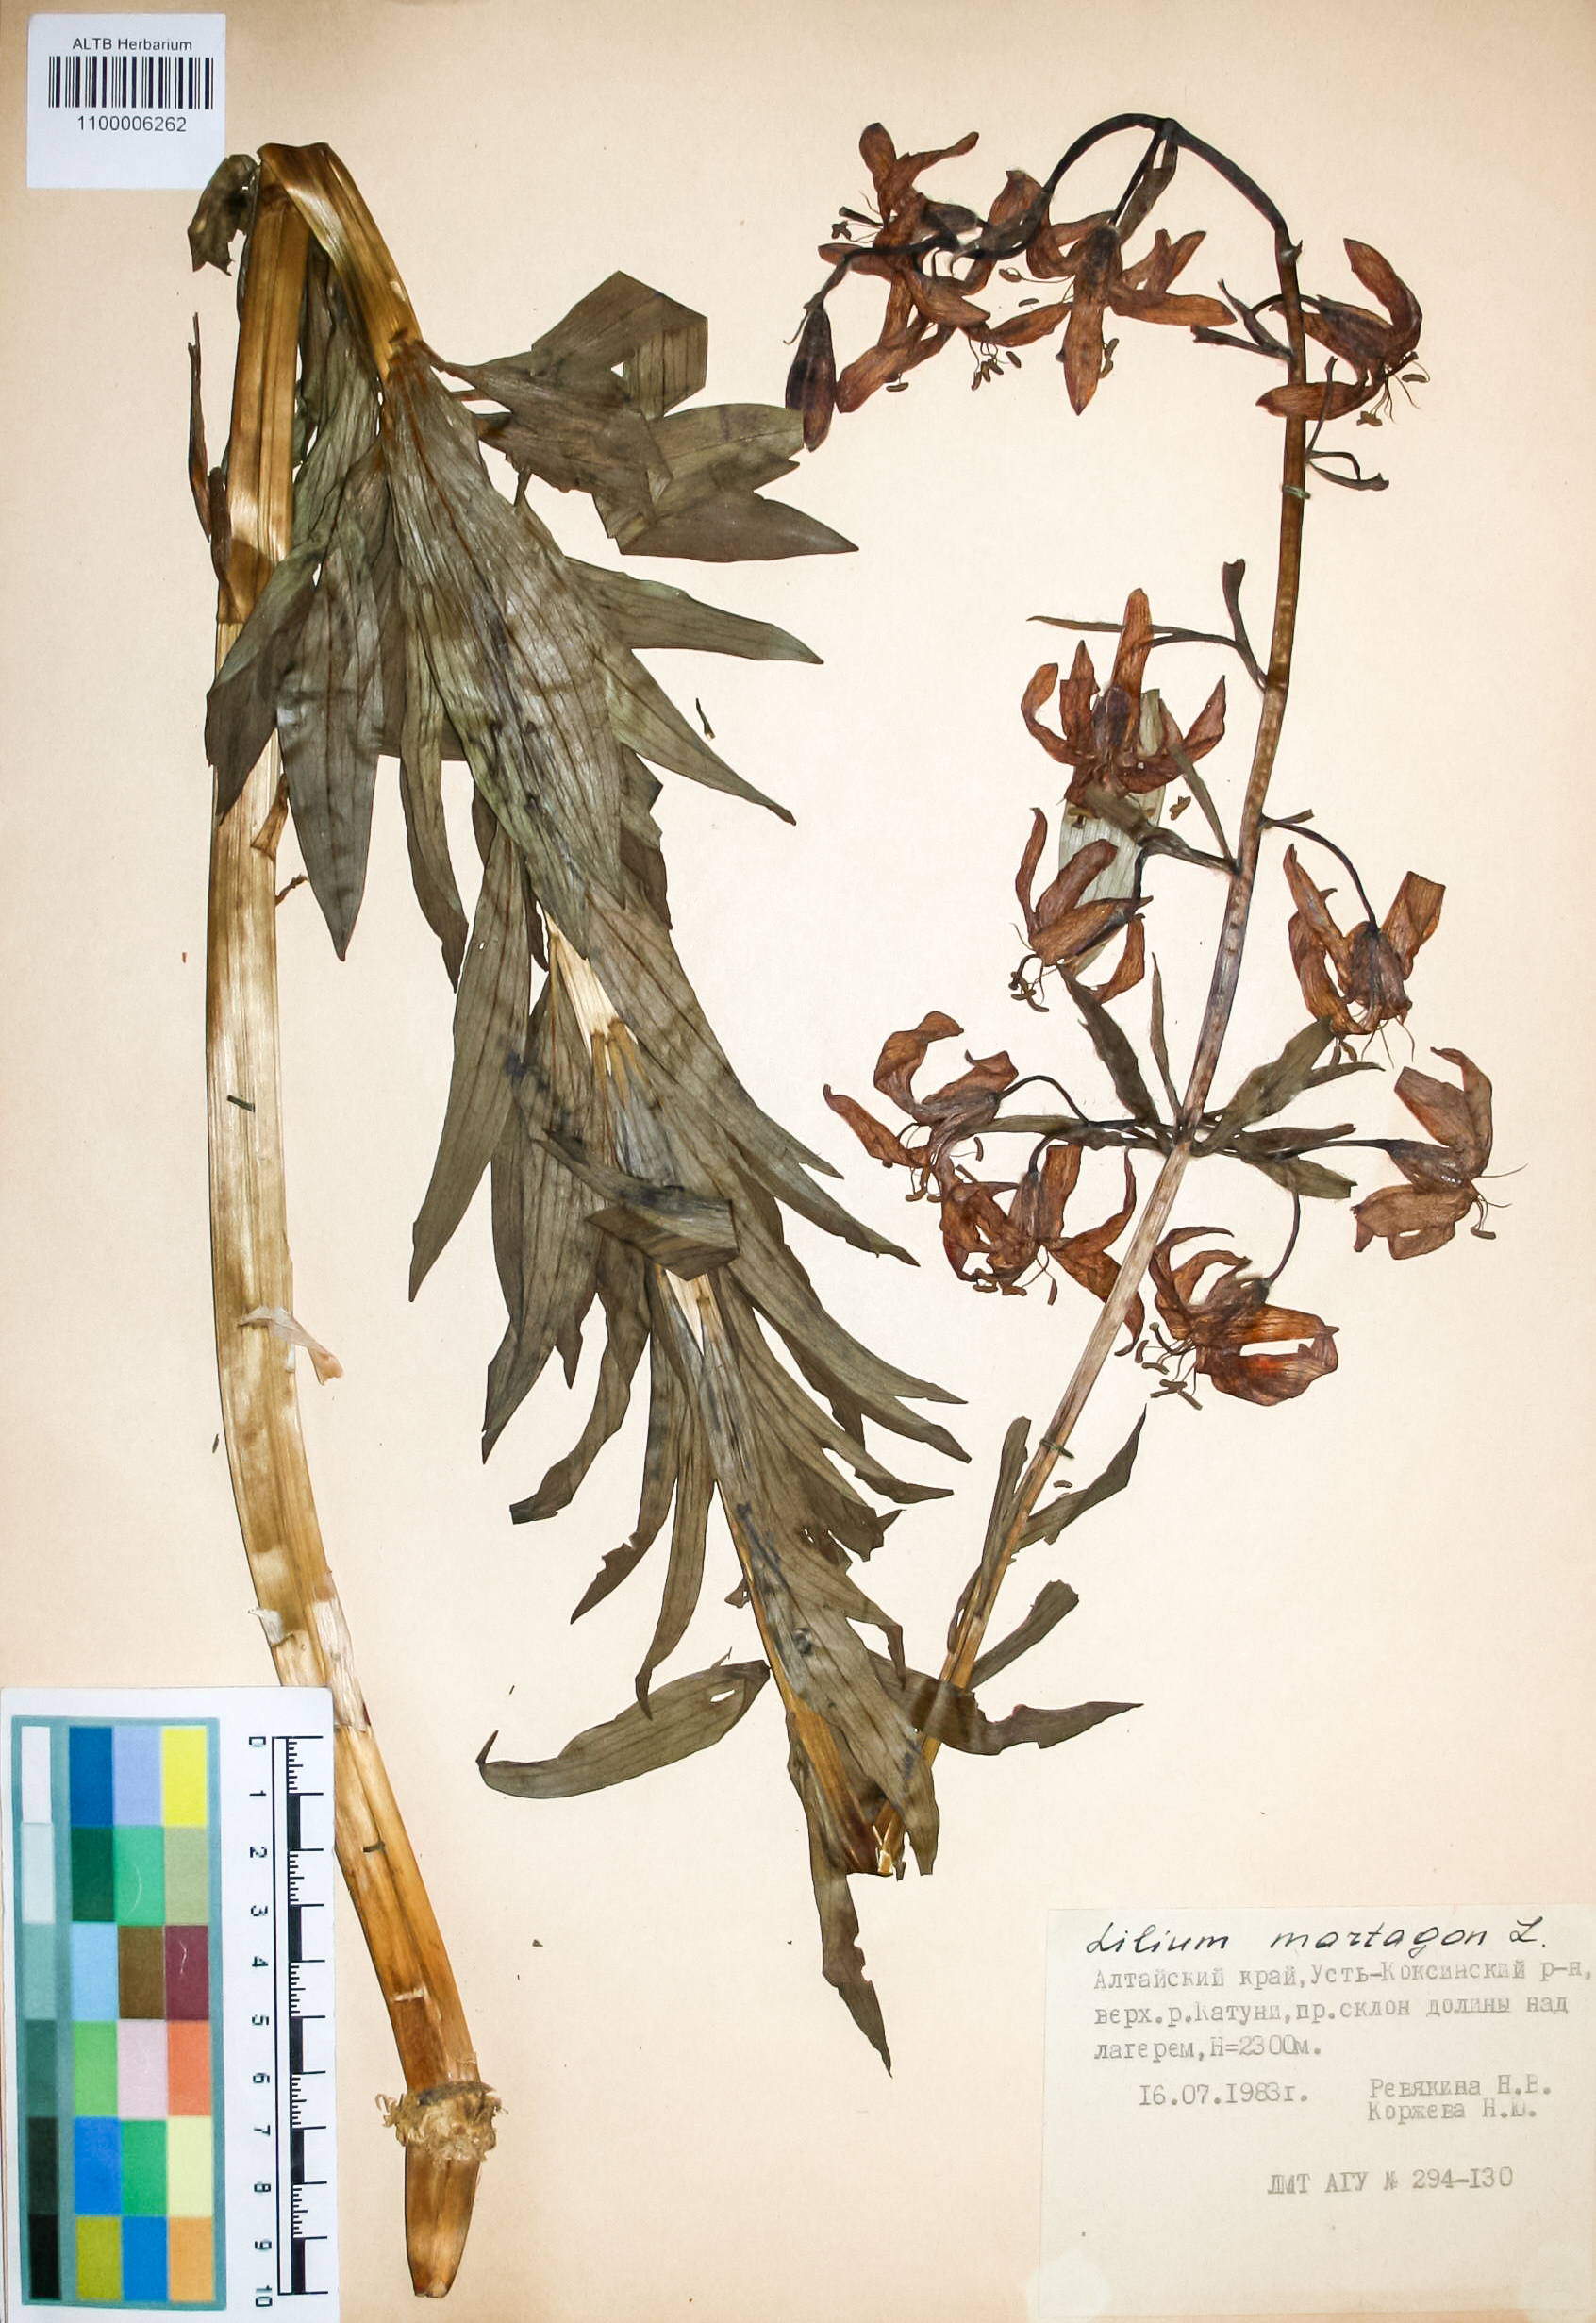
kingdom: Plantae
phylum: Tracheophyta
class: Liliopsida
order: Liliales
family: Liliaceae
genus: Lilium
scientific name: Lilium martagon
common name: Martagon lily
